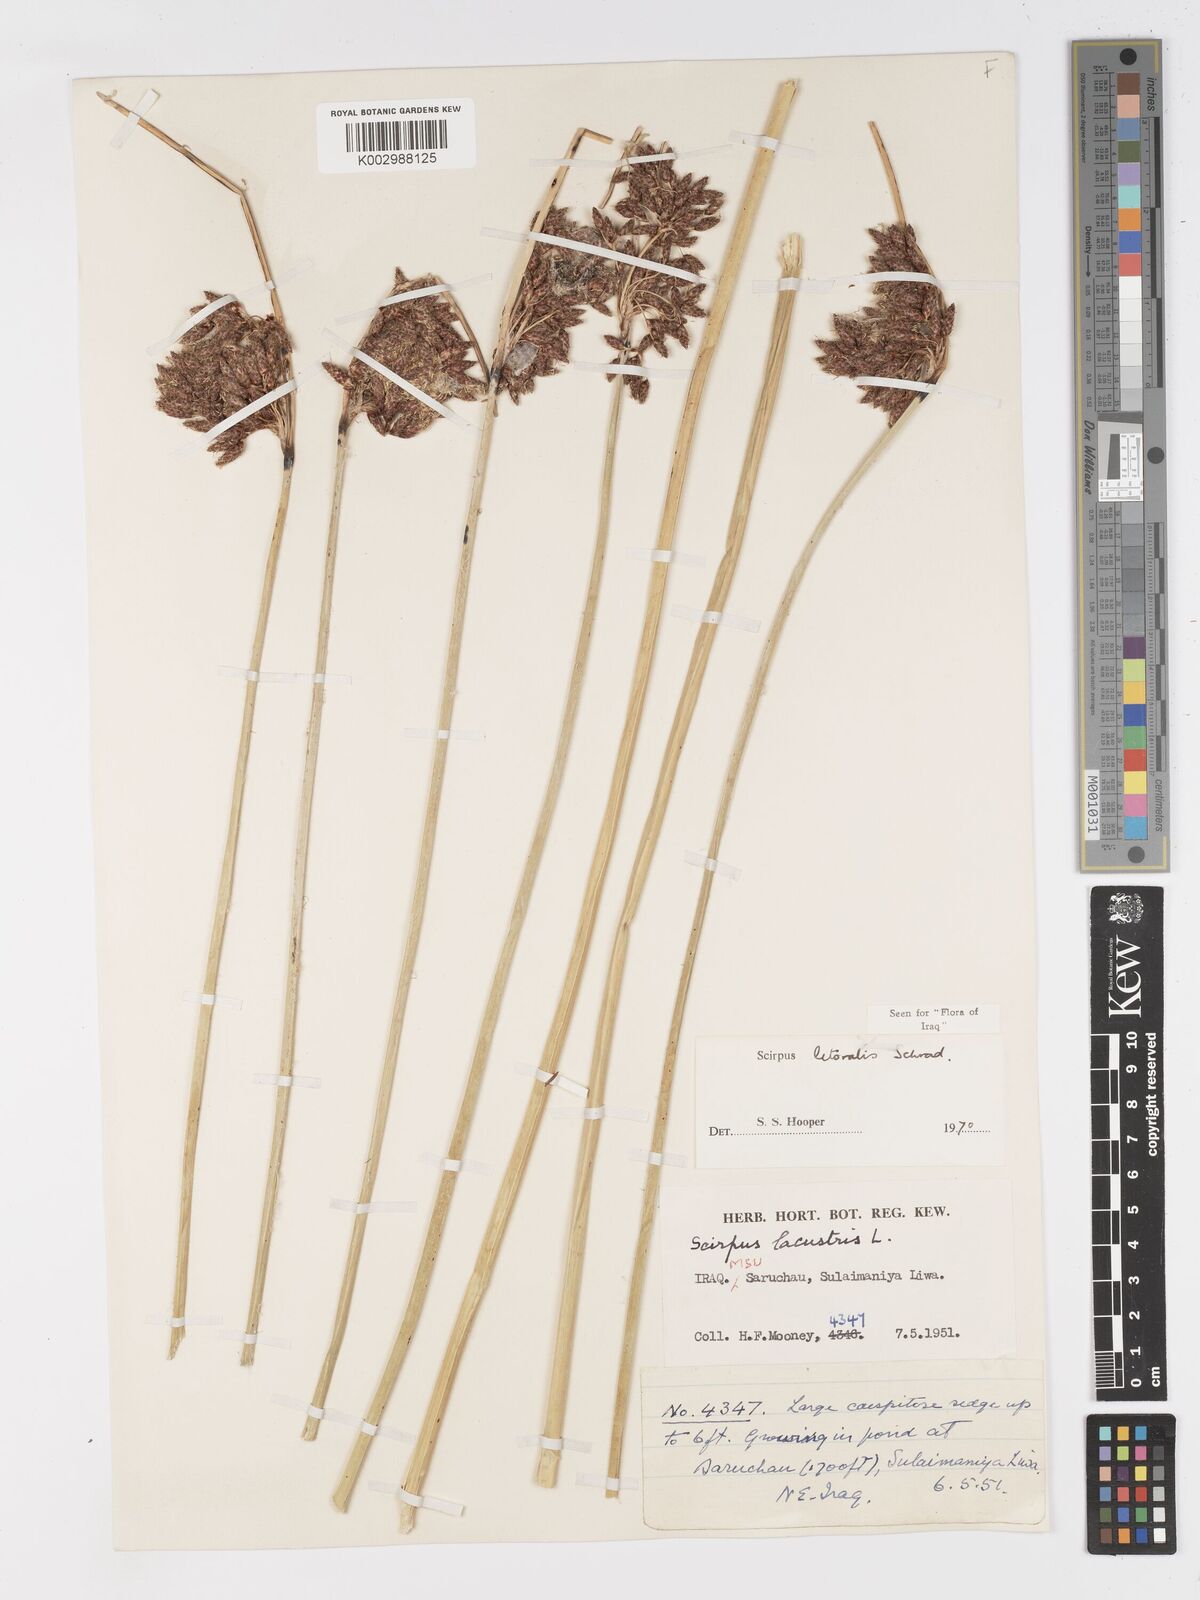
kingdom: Plantae
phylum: Tracheophyta
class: Liliopsida
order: Poales
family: Cyperaceae
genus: Schoenoplectus
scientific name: Schoenoplectus litoralis
